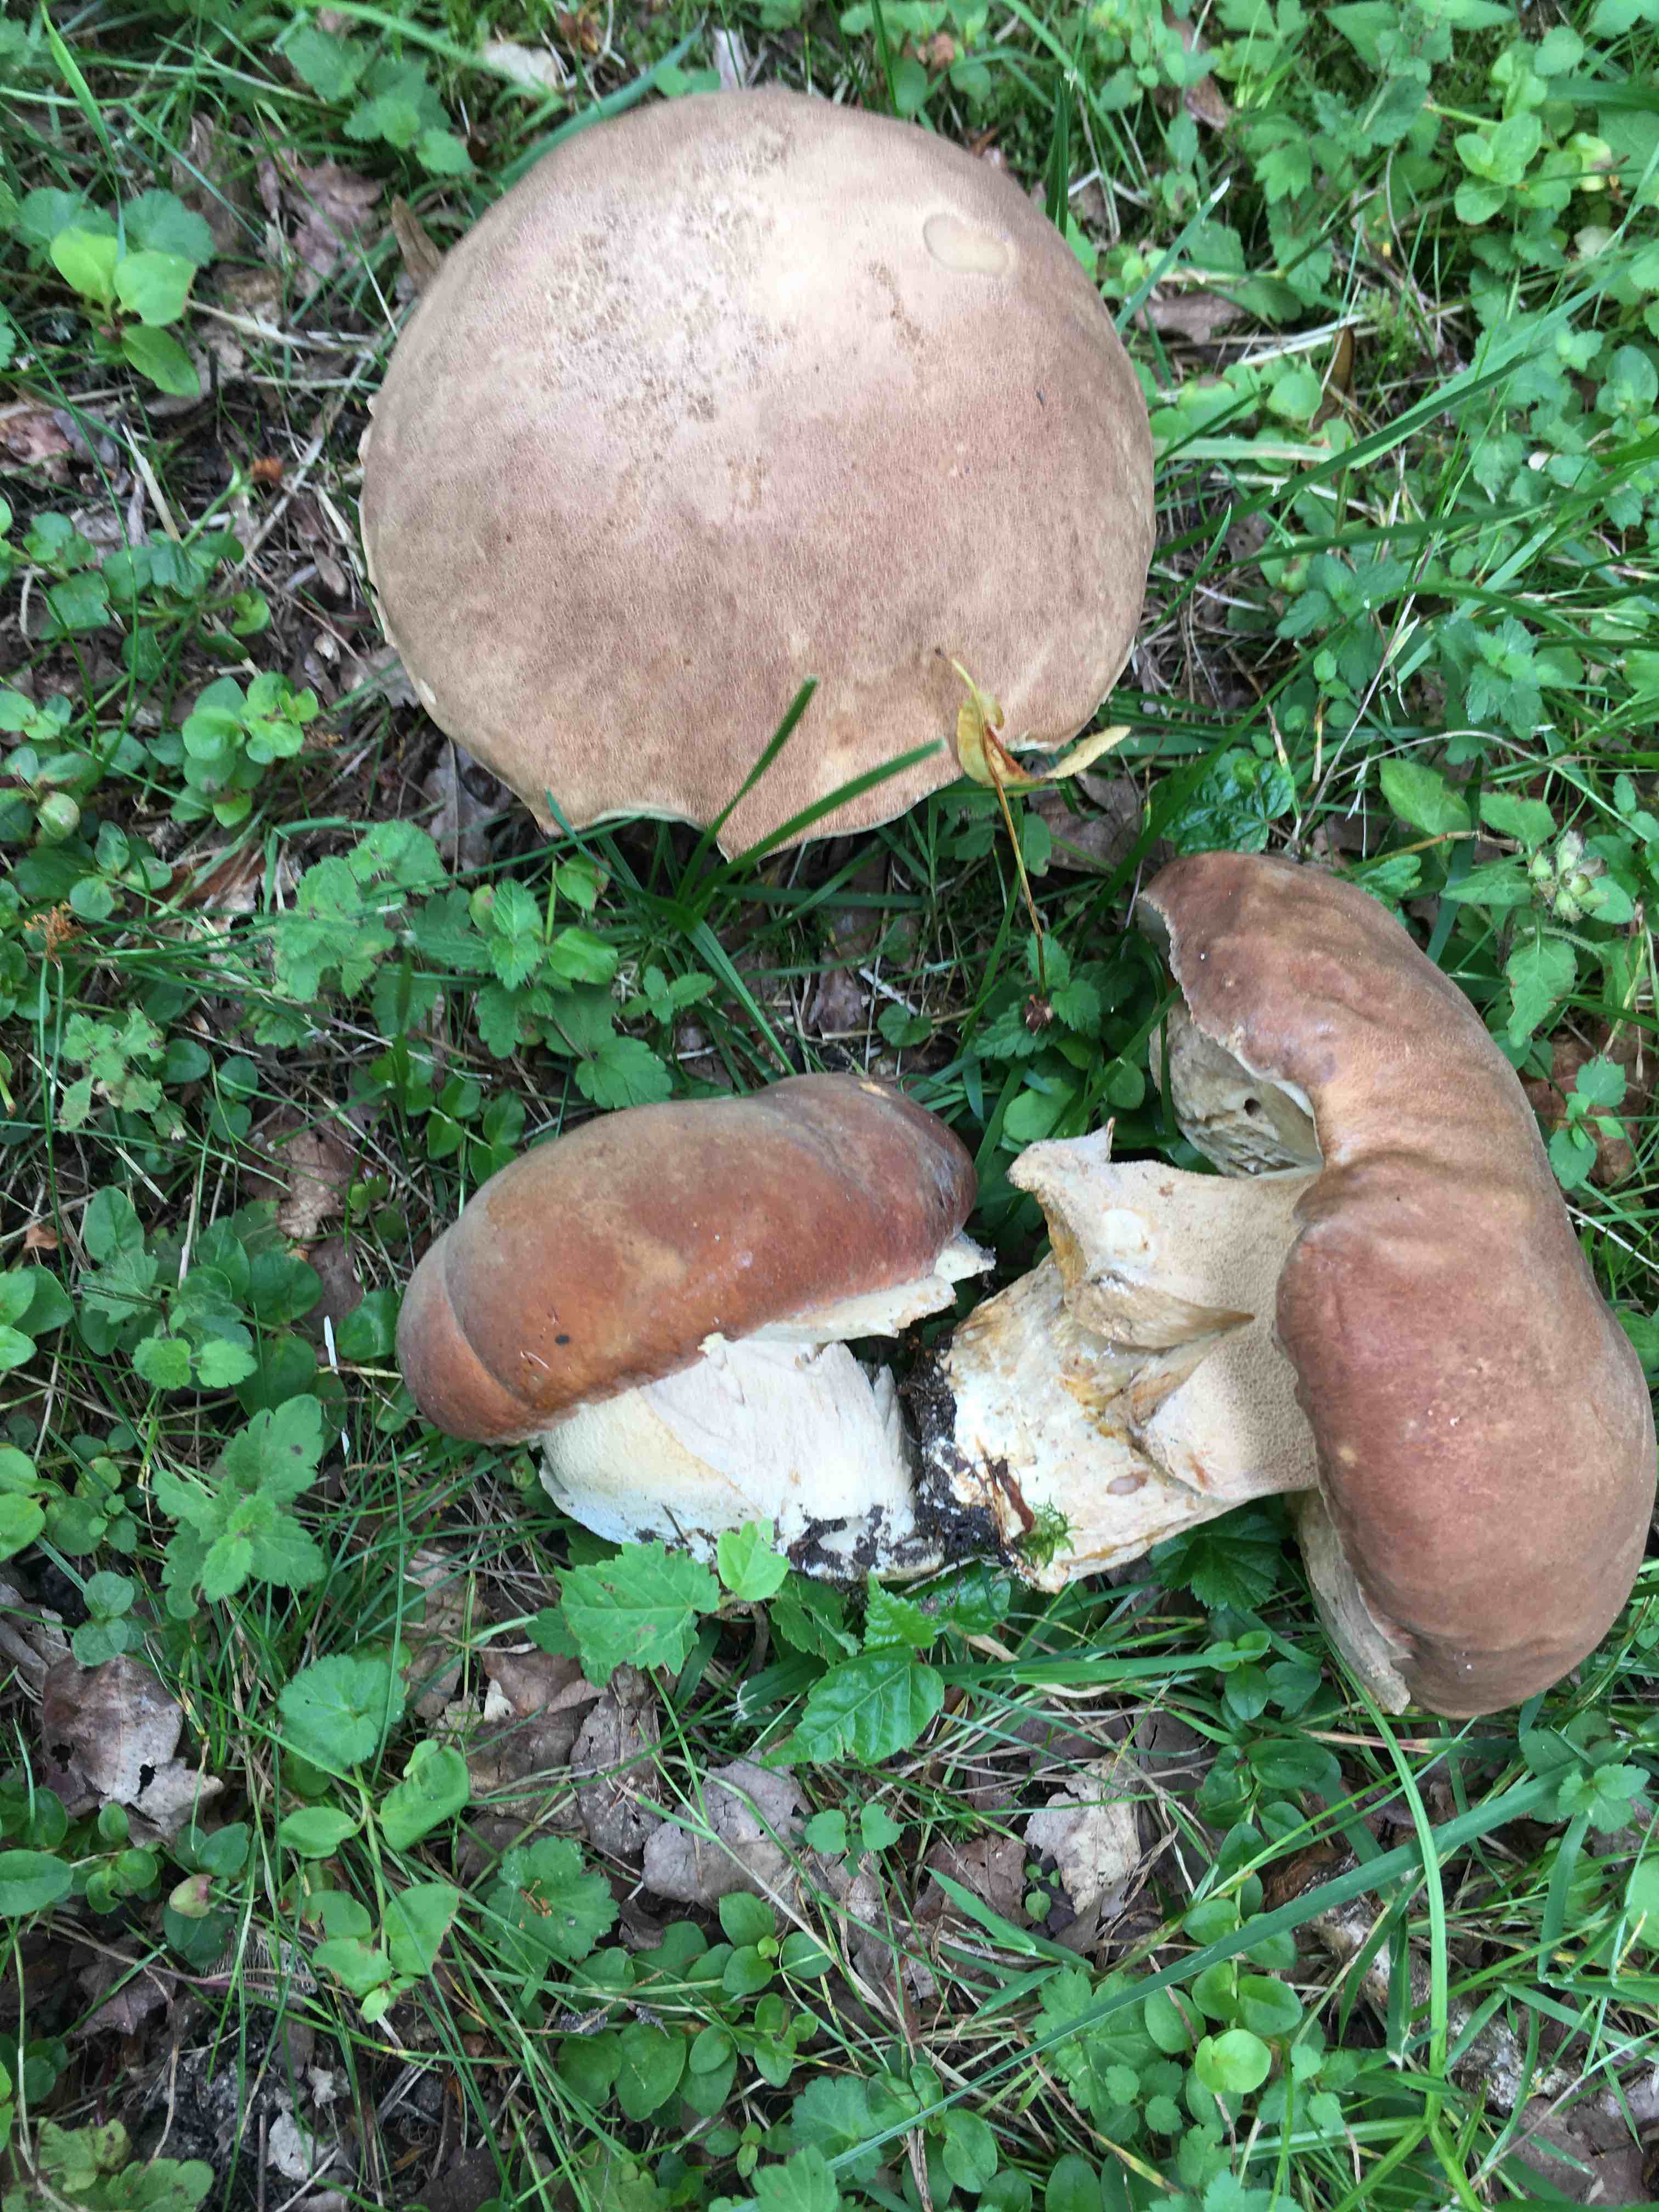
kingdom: Fungi
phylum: Basidiomycota
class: Agaricomycetes
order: Boletales
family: Boletaceae
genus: Boletus
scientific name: Boletus reticulatus
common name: sommer-rørhat
